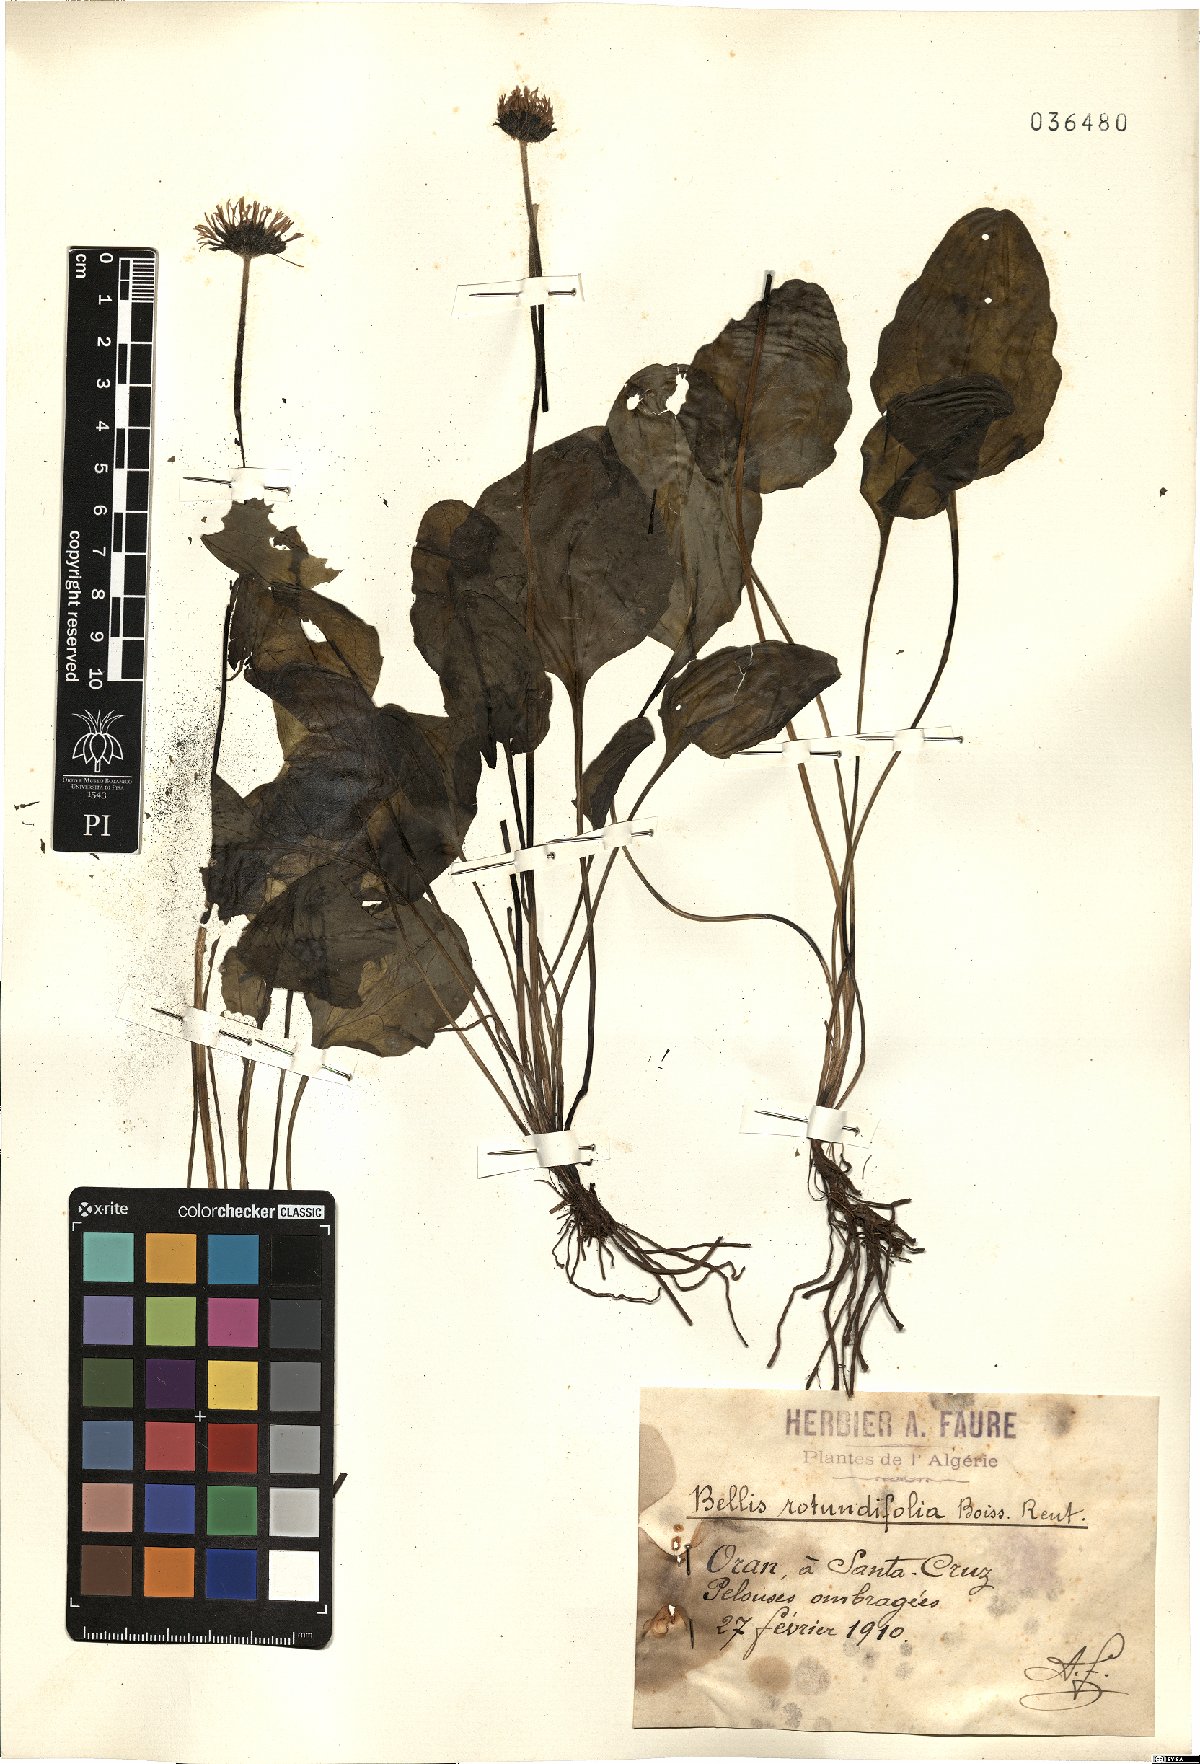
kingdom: Plantae
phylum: Tracheophyta
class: Magnoliopsida
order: Asterales
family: Asteraceae
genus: Bellis
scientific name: Bellis rotundifolia
